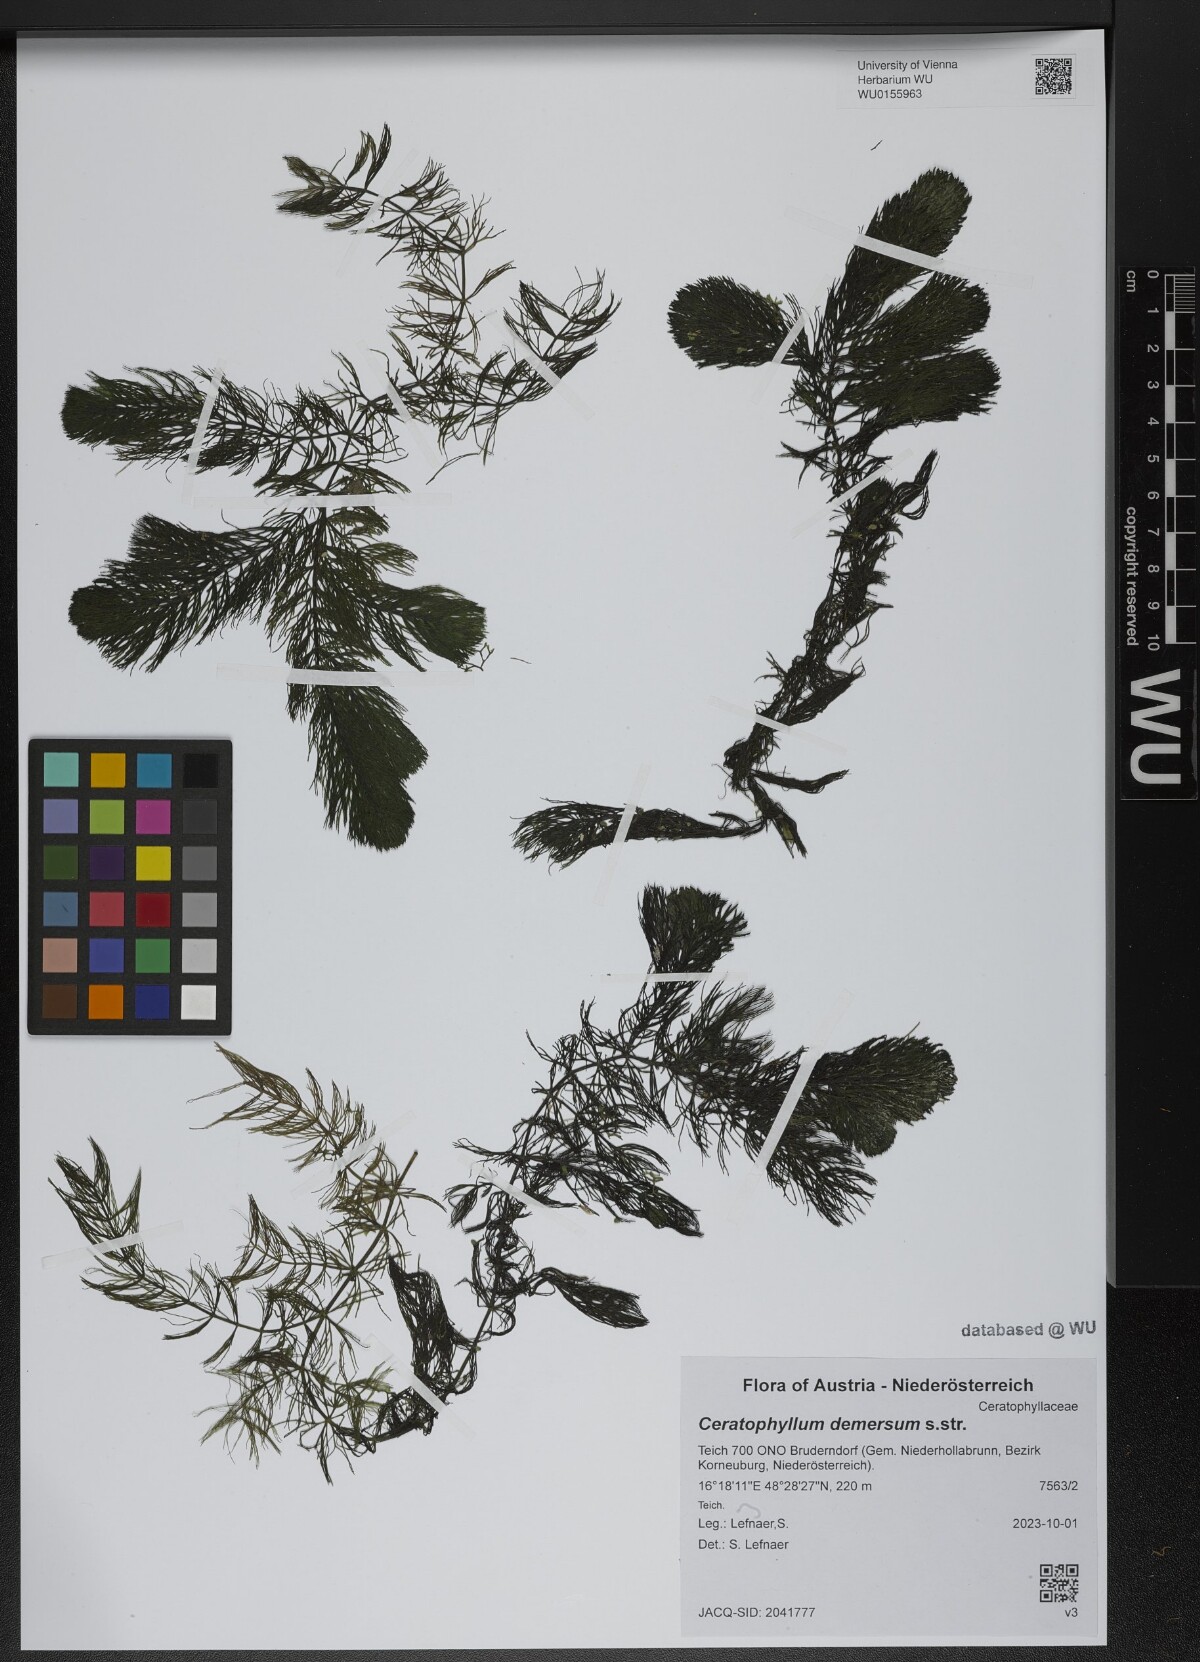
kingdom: Plantae
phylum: Tracheophyta
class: Magnoliopsida
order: Ceratophyllales
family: Ceratophyllaceae
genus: Ceratophyllum
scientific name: Ceratophyllum demersum
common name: Rigid hornwort
